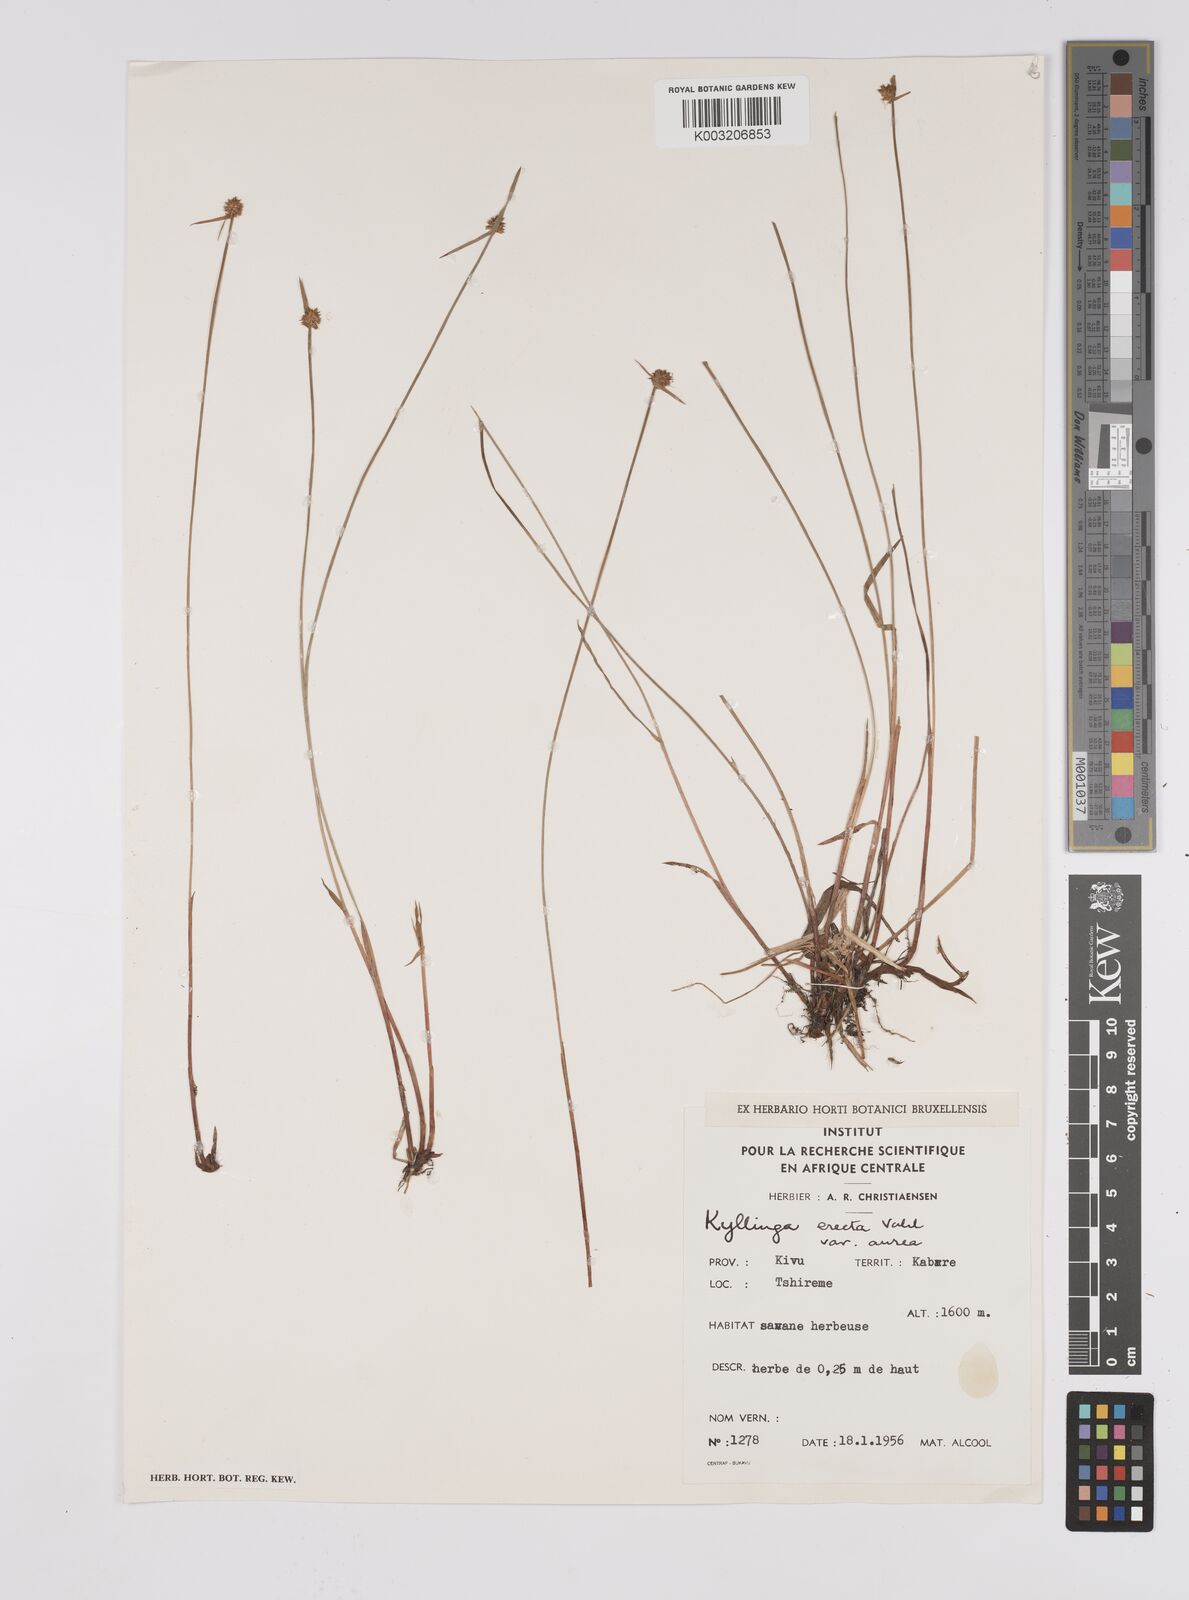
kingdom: Plantae
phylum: Tracheophyta
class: Liliopsida
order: Poales
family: Cyperaceae
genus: Cyperus
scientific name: Cyperus erectus
